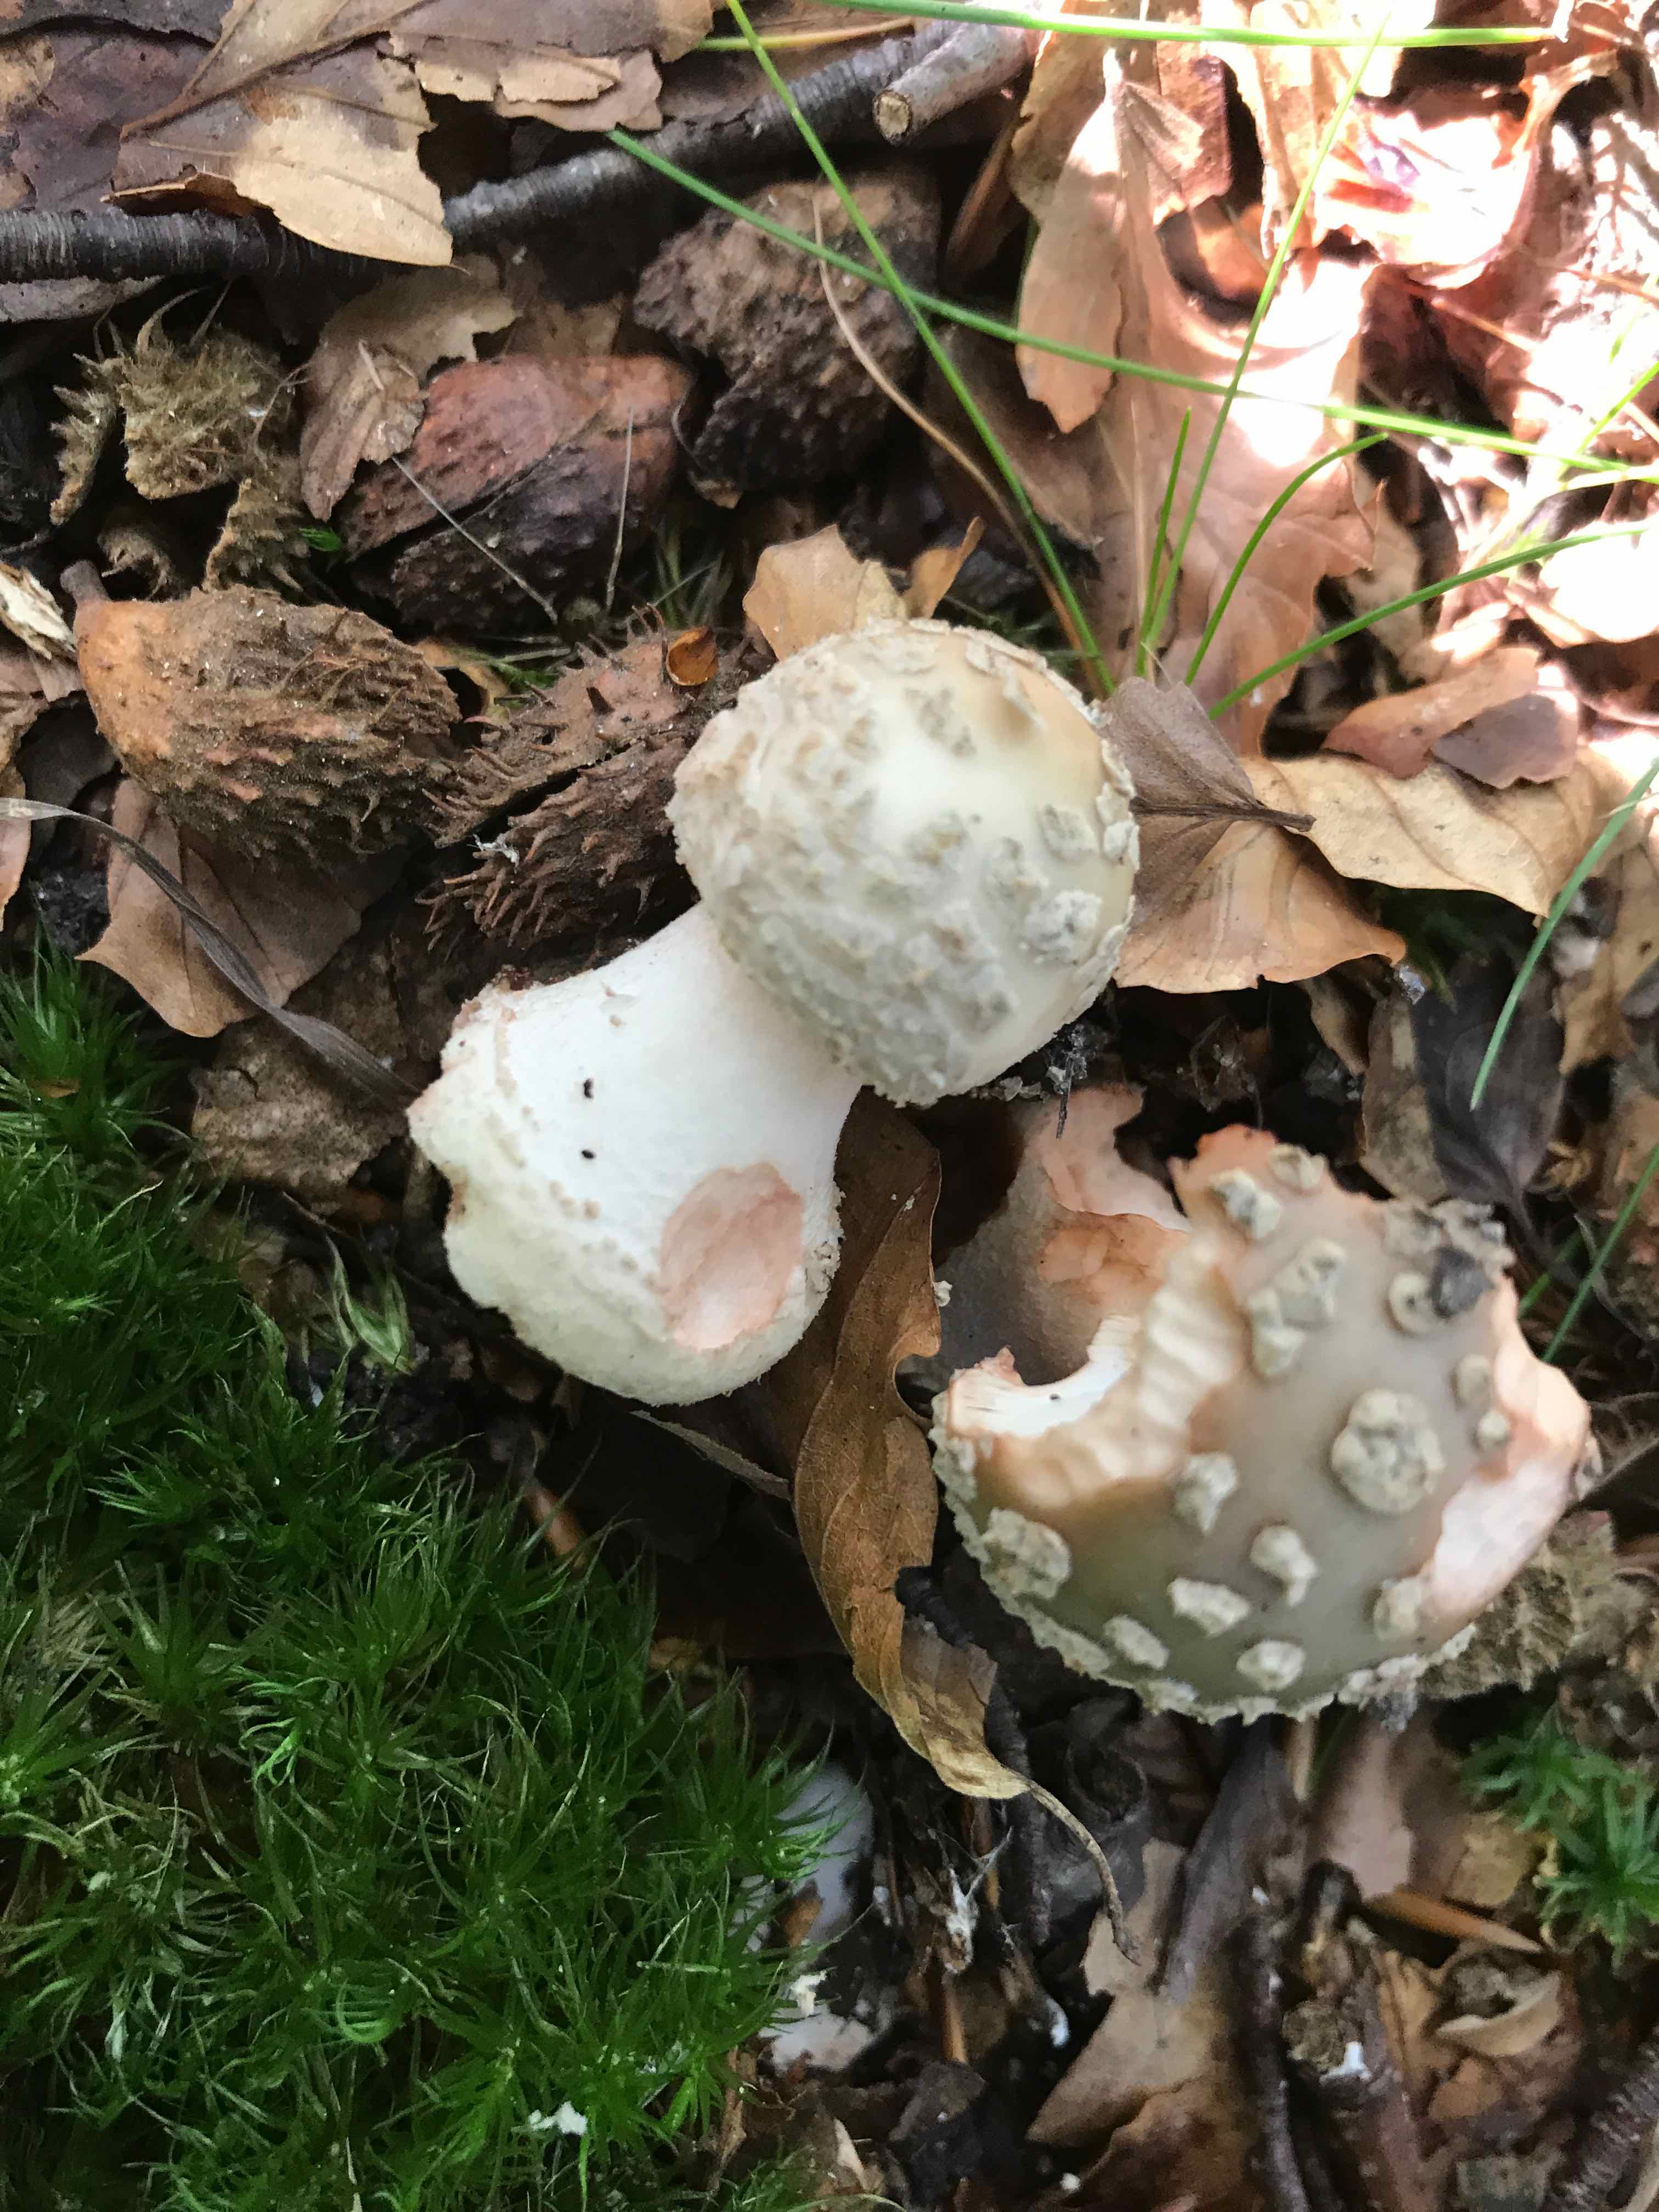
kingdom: Fungi
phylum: Basidiomycota
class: Agaricomycetes
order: Agaricales
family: Amanitaceae
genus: Amanita
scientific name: Amanita rubescens
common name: rødmende fluesvamp
